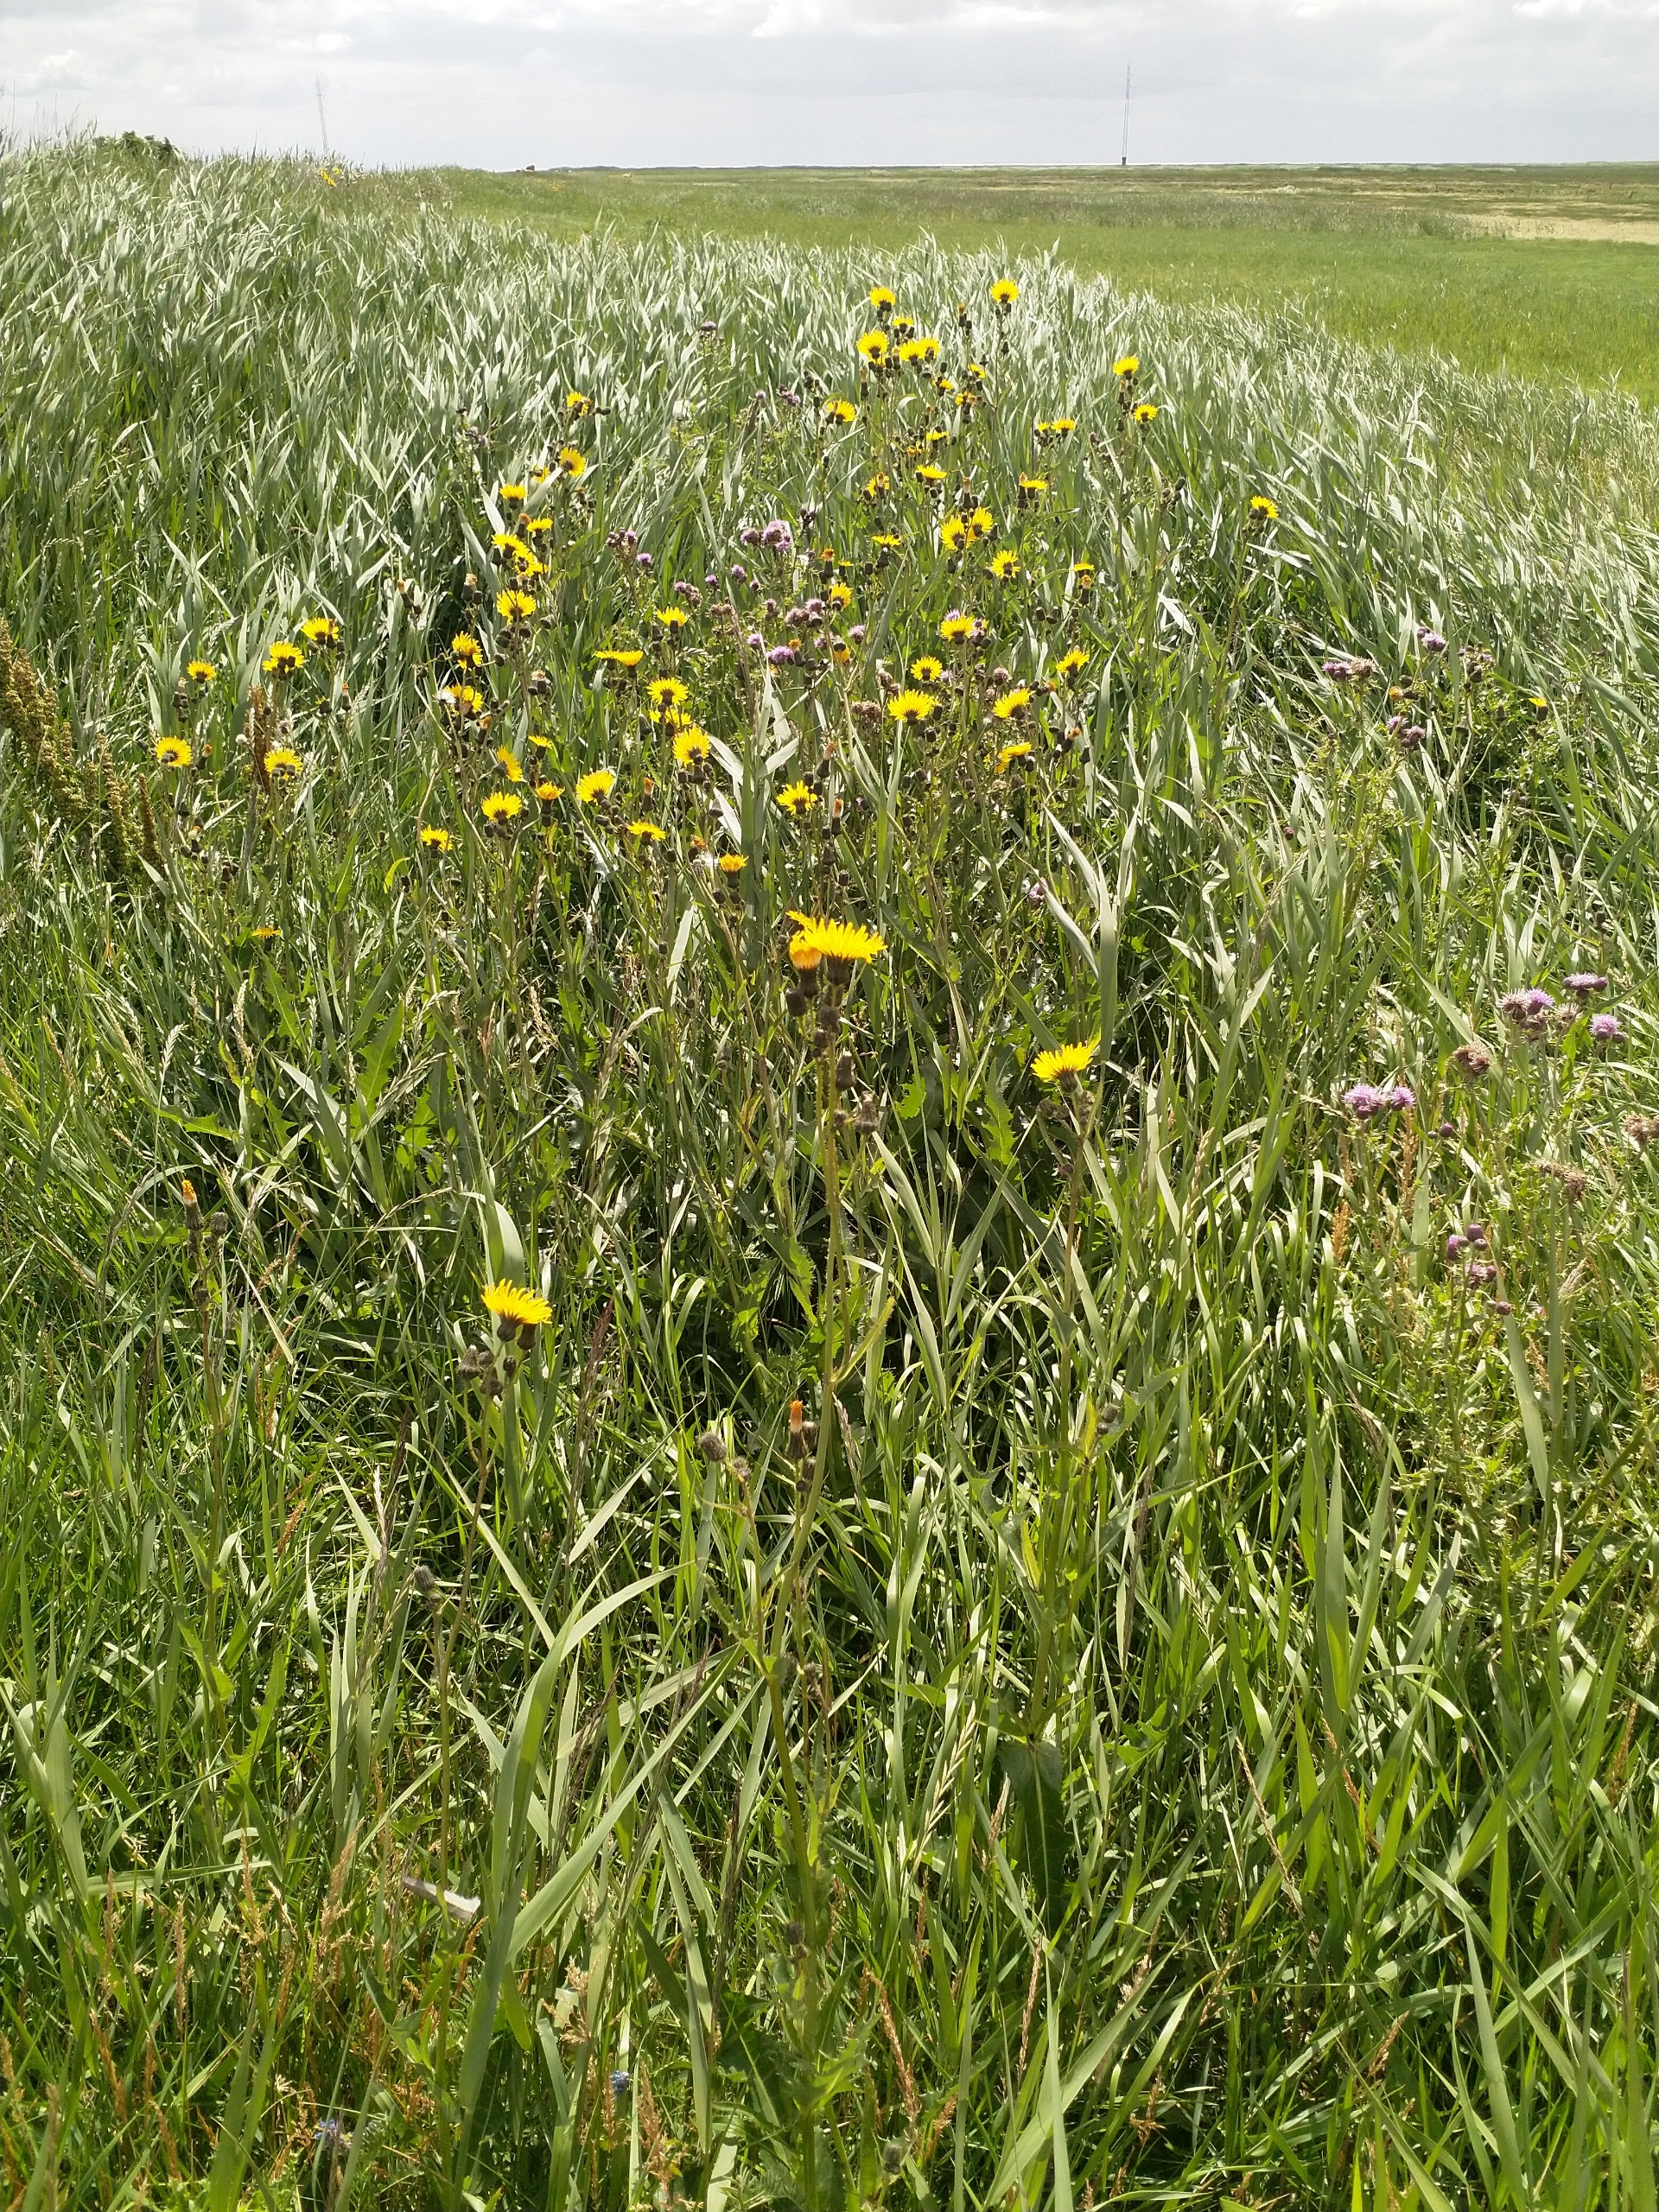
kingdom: Plantae
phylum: Tracheophyta
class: Magnoliopsida
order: Asterales
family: Asteraceae
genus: Sonchus
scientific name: Sonchus arvensis
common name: Ager-svinemælk
